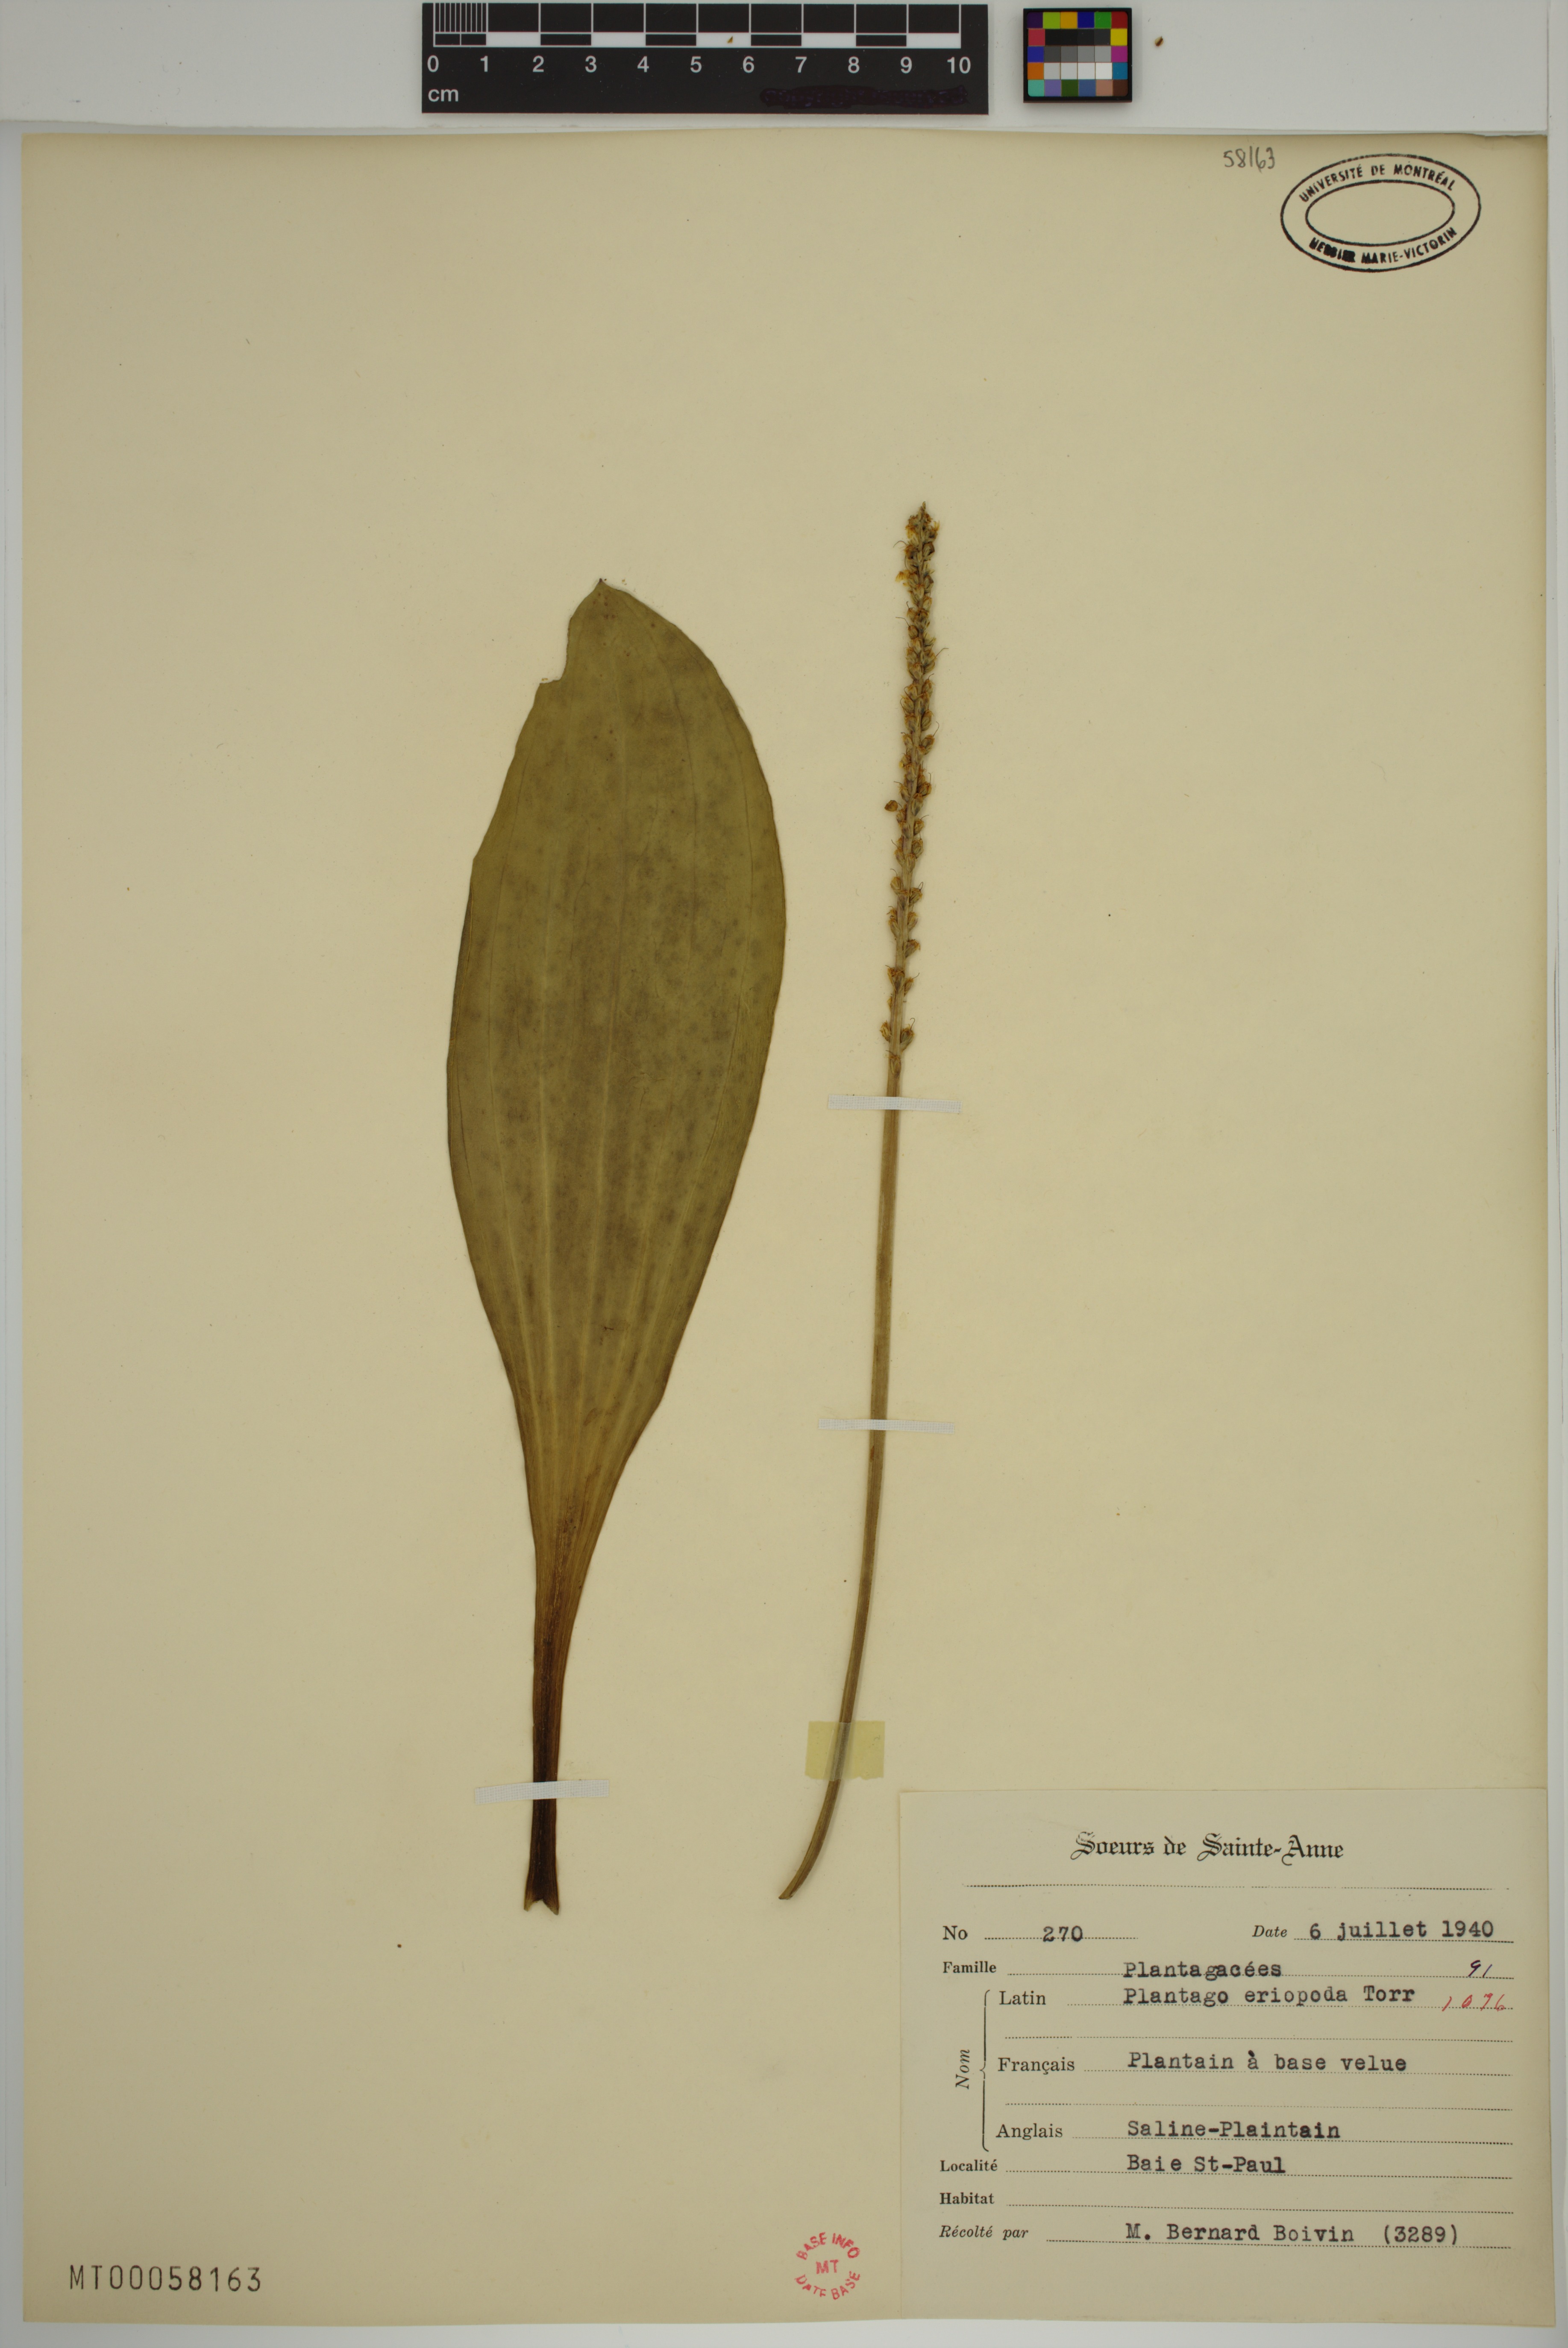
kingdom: Plantae
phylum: Tracheophyta
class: Magnoliopsida
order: Lamiales
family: Plantaginaceae
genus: Plantago
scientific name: Plantago eriopoda
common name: Alkali plantain
